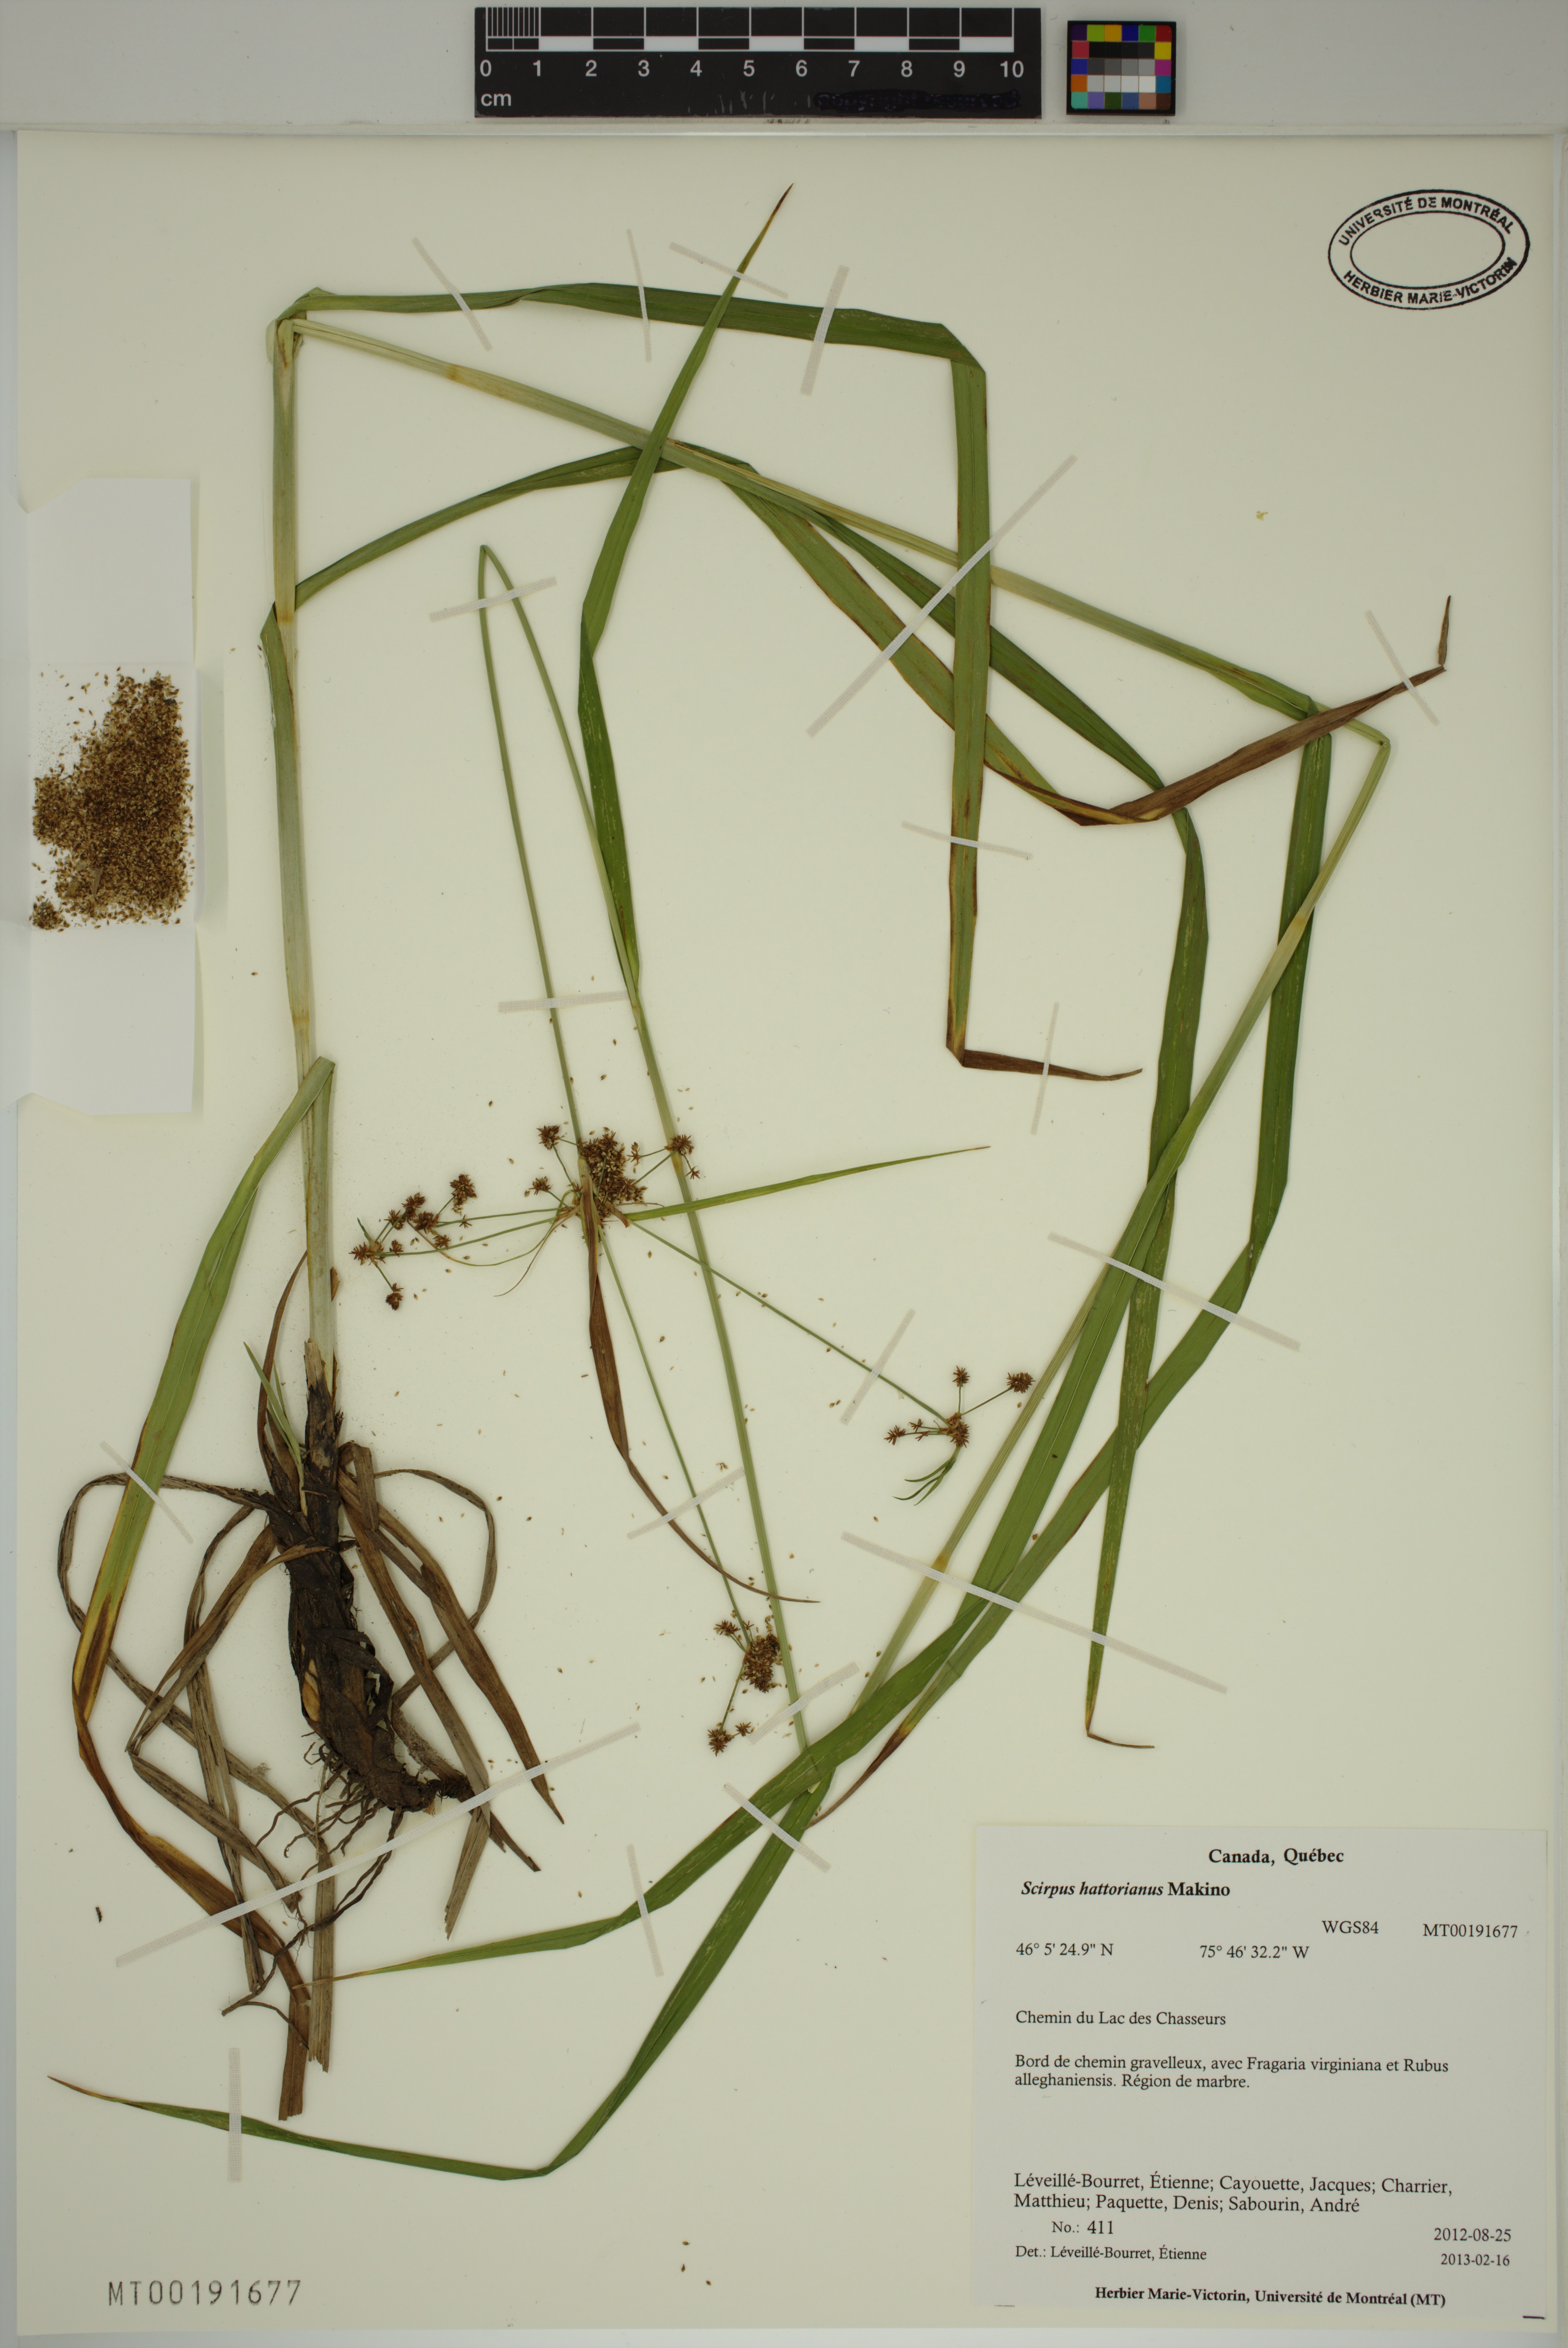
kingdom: Plantae
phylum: Tracheophyta
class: Liliopsida
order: Poales
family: Cyperaceae
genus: Scirpus
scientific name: Scirpus hattorianus
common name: Early dark-green bulrush
